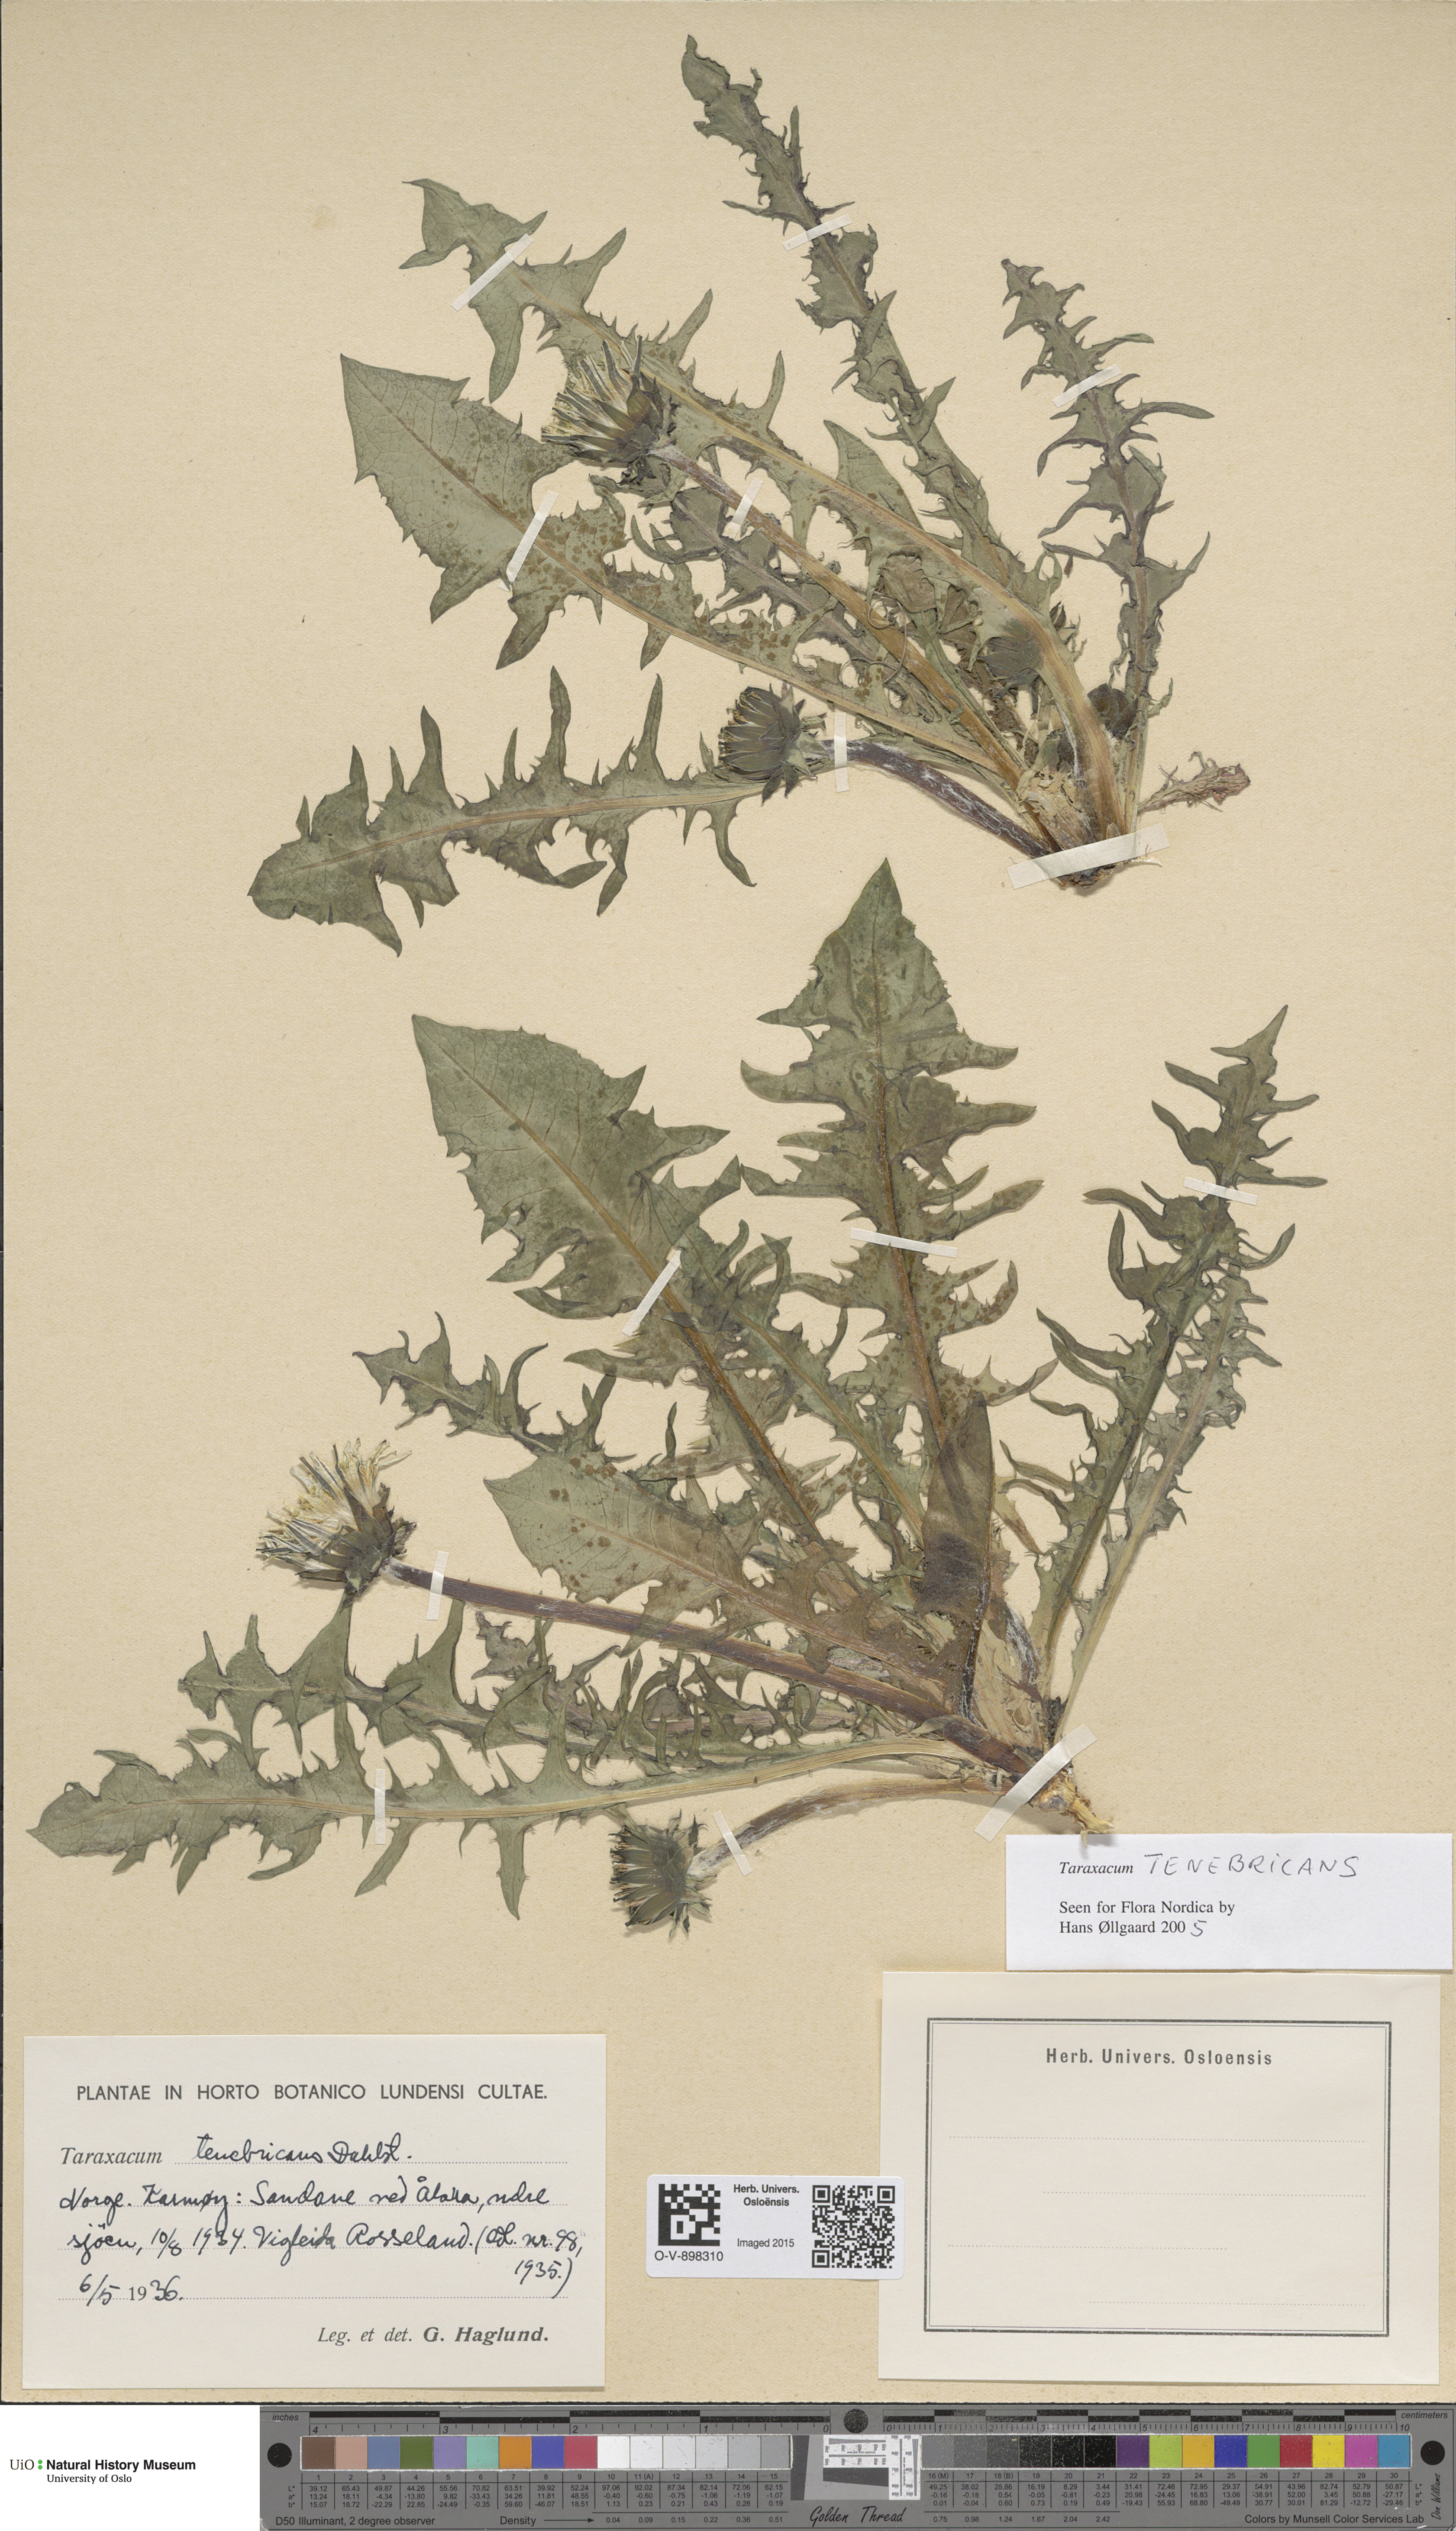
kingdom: Plantae
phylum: Tracheophyta
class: Magnoliopsida
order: Asterales
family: Asteraceae
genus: Taraxacum
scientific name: Taraxacum tenebricans
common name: Shiny-leaved dandelion
